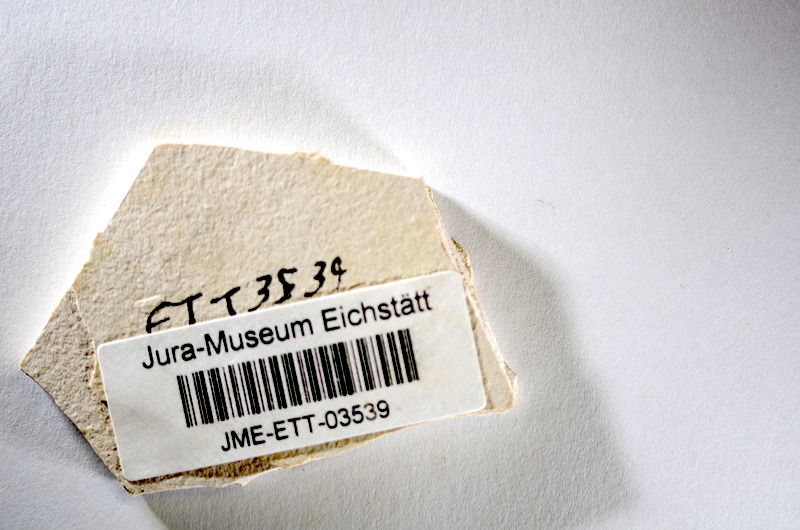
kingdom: Animalia
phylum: Chordata
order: Salmoniformes
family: Orthogonikleithridae
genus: Orthogonikleithrus
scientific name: Orthogonikleithrus hoelli
